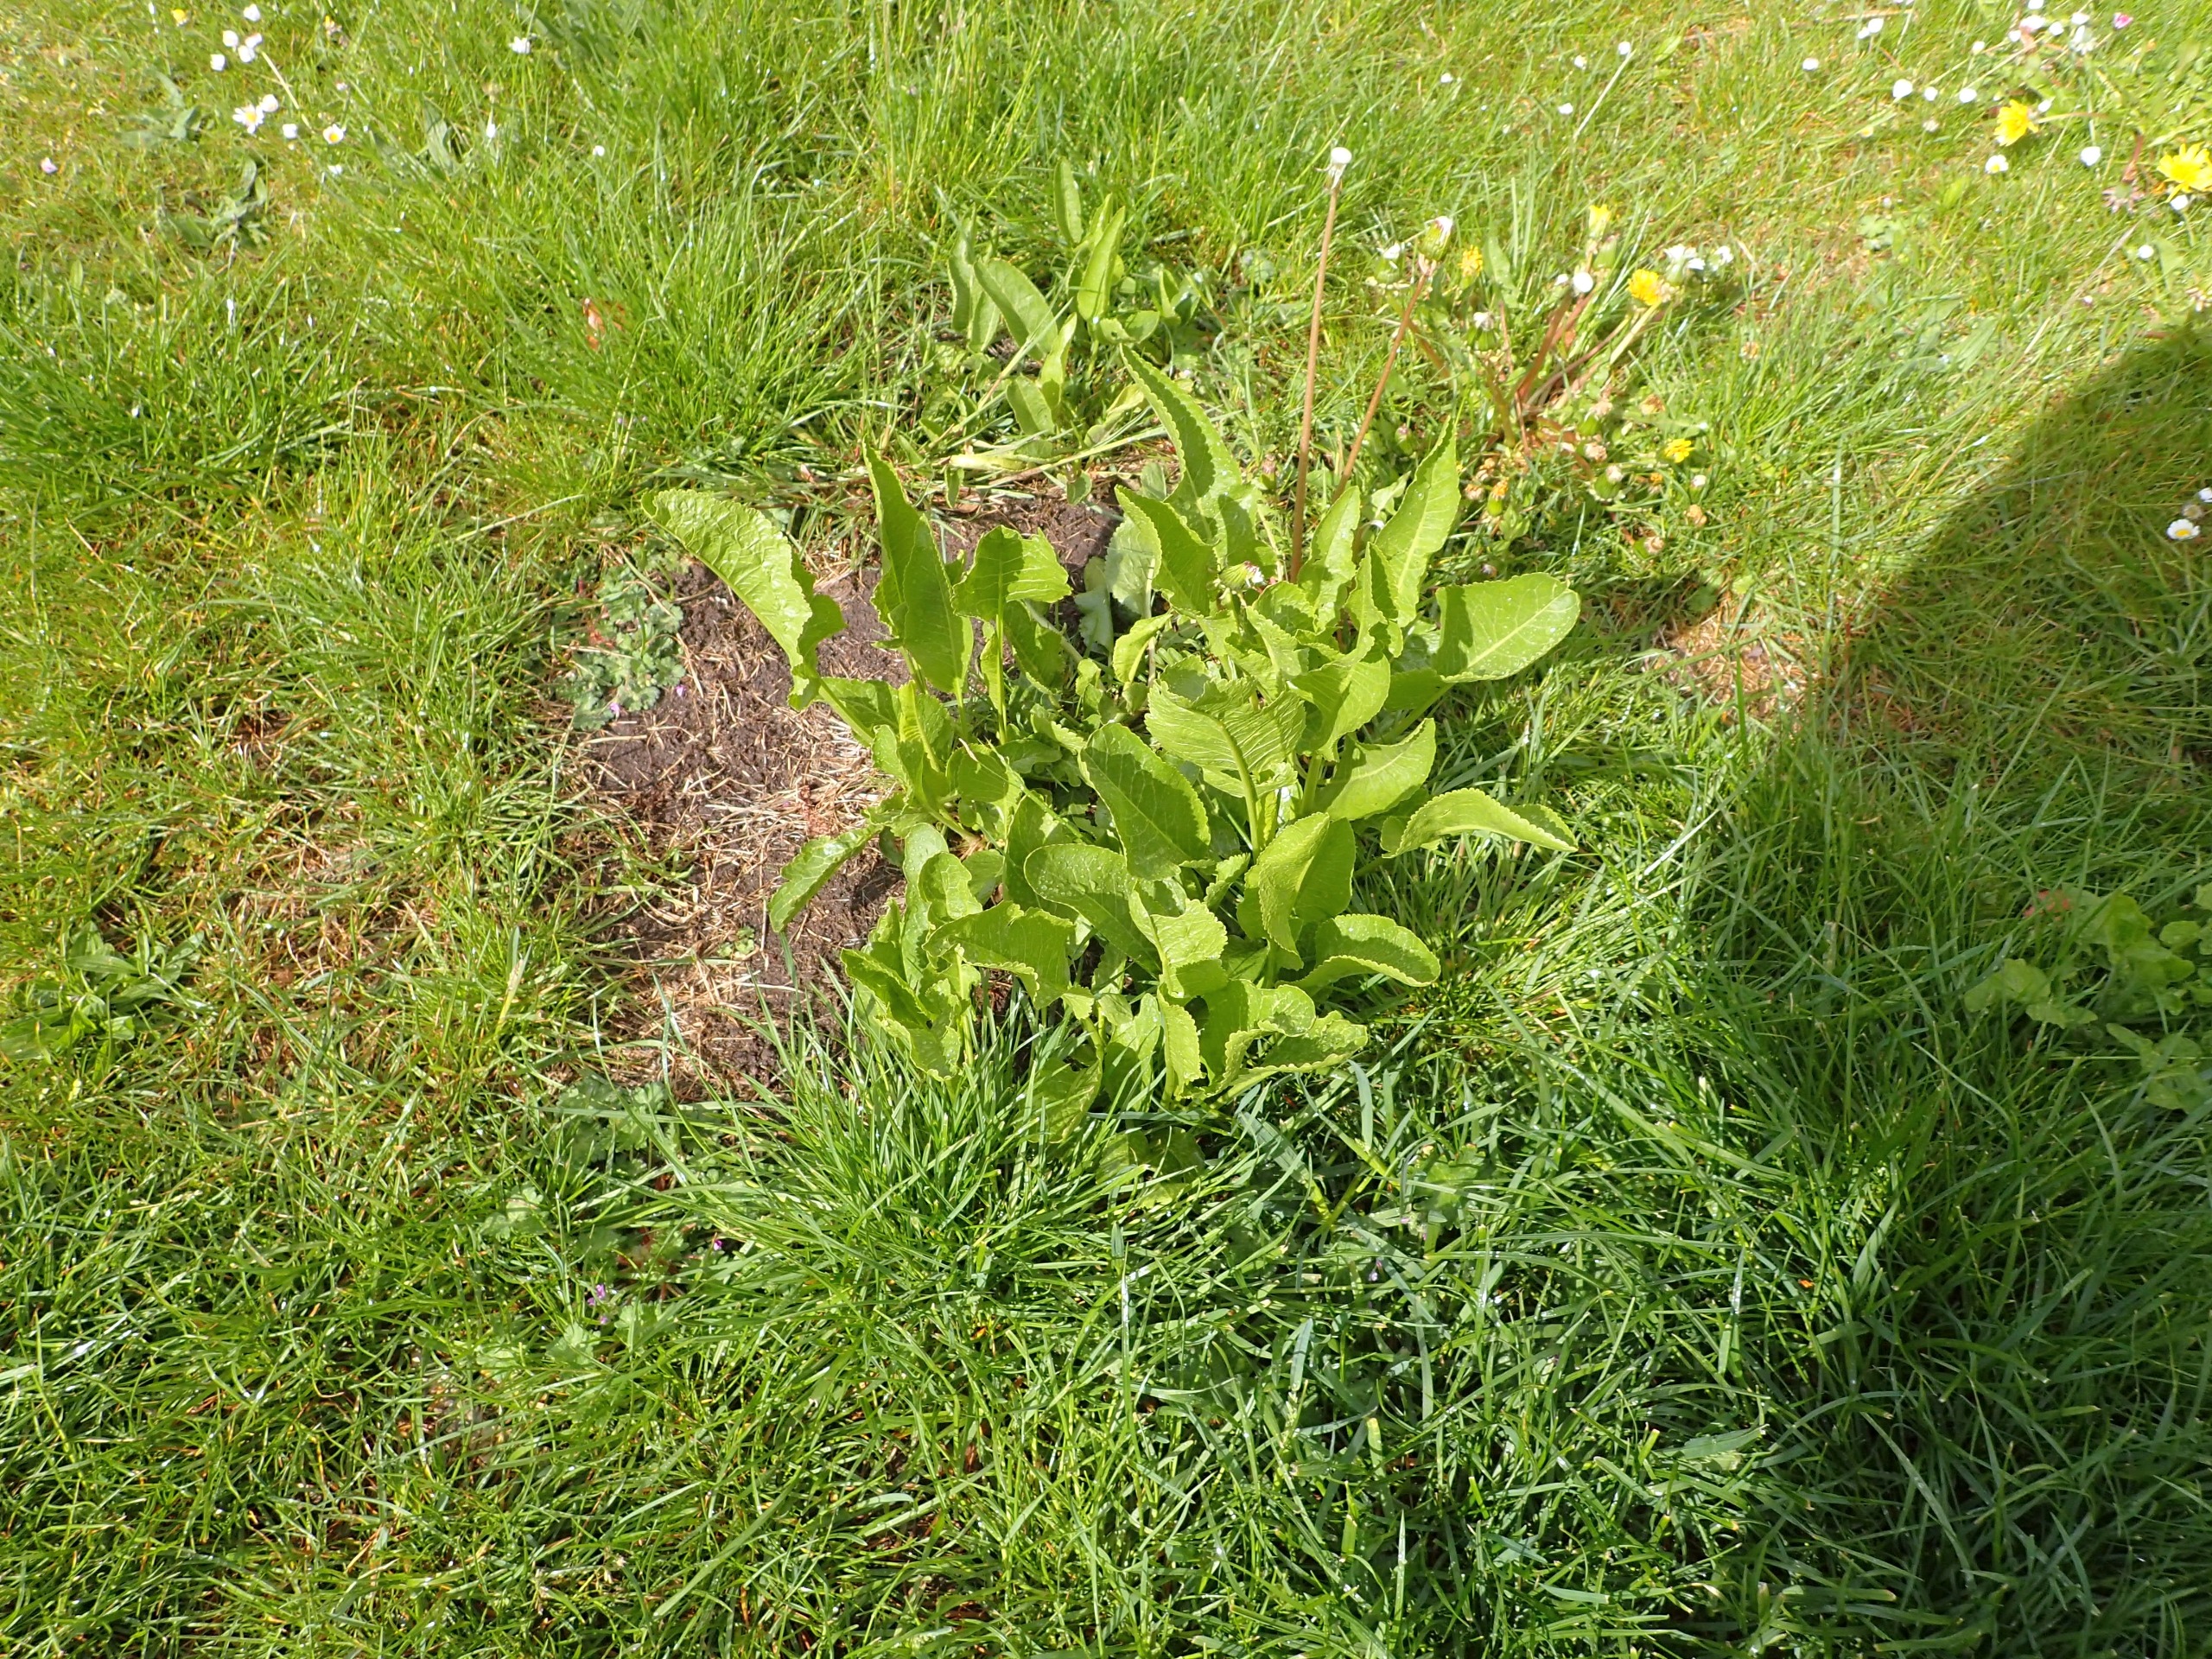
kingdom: Plantae
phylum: Tracheophyta
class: Magnoliopsida
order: Brassicales
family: Brassicaceae
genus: Armoracia
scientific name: Armoracia rusticana
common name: Peberrod
